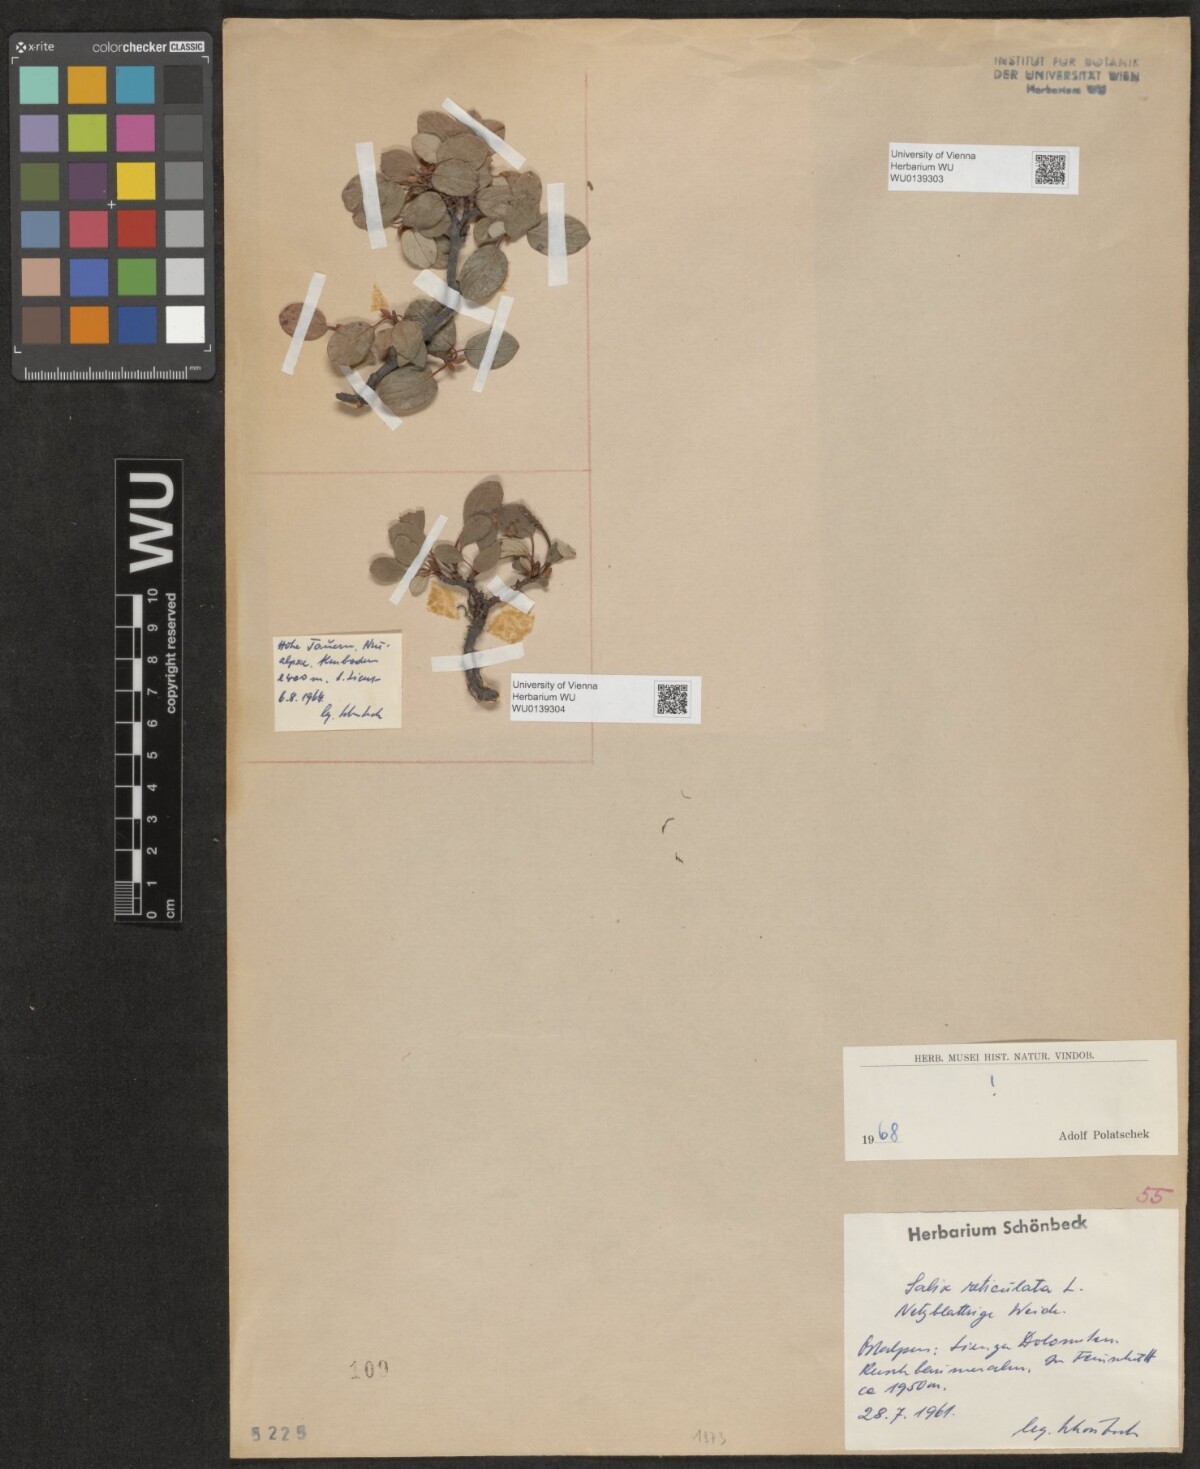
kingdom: Plantae
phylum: Tracheophyta
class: Magnoliopsida
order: Malpighiales
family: Salicaceae
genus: Salix
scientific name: Salix reticulata
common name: Net-leaved willow
